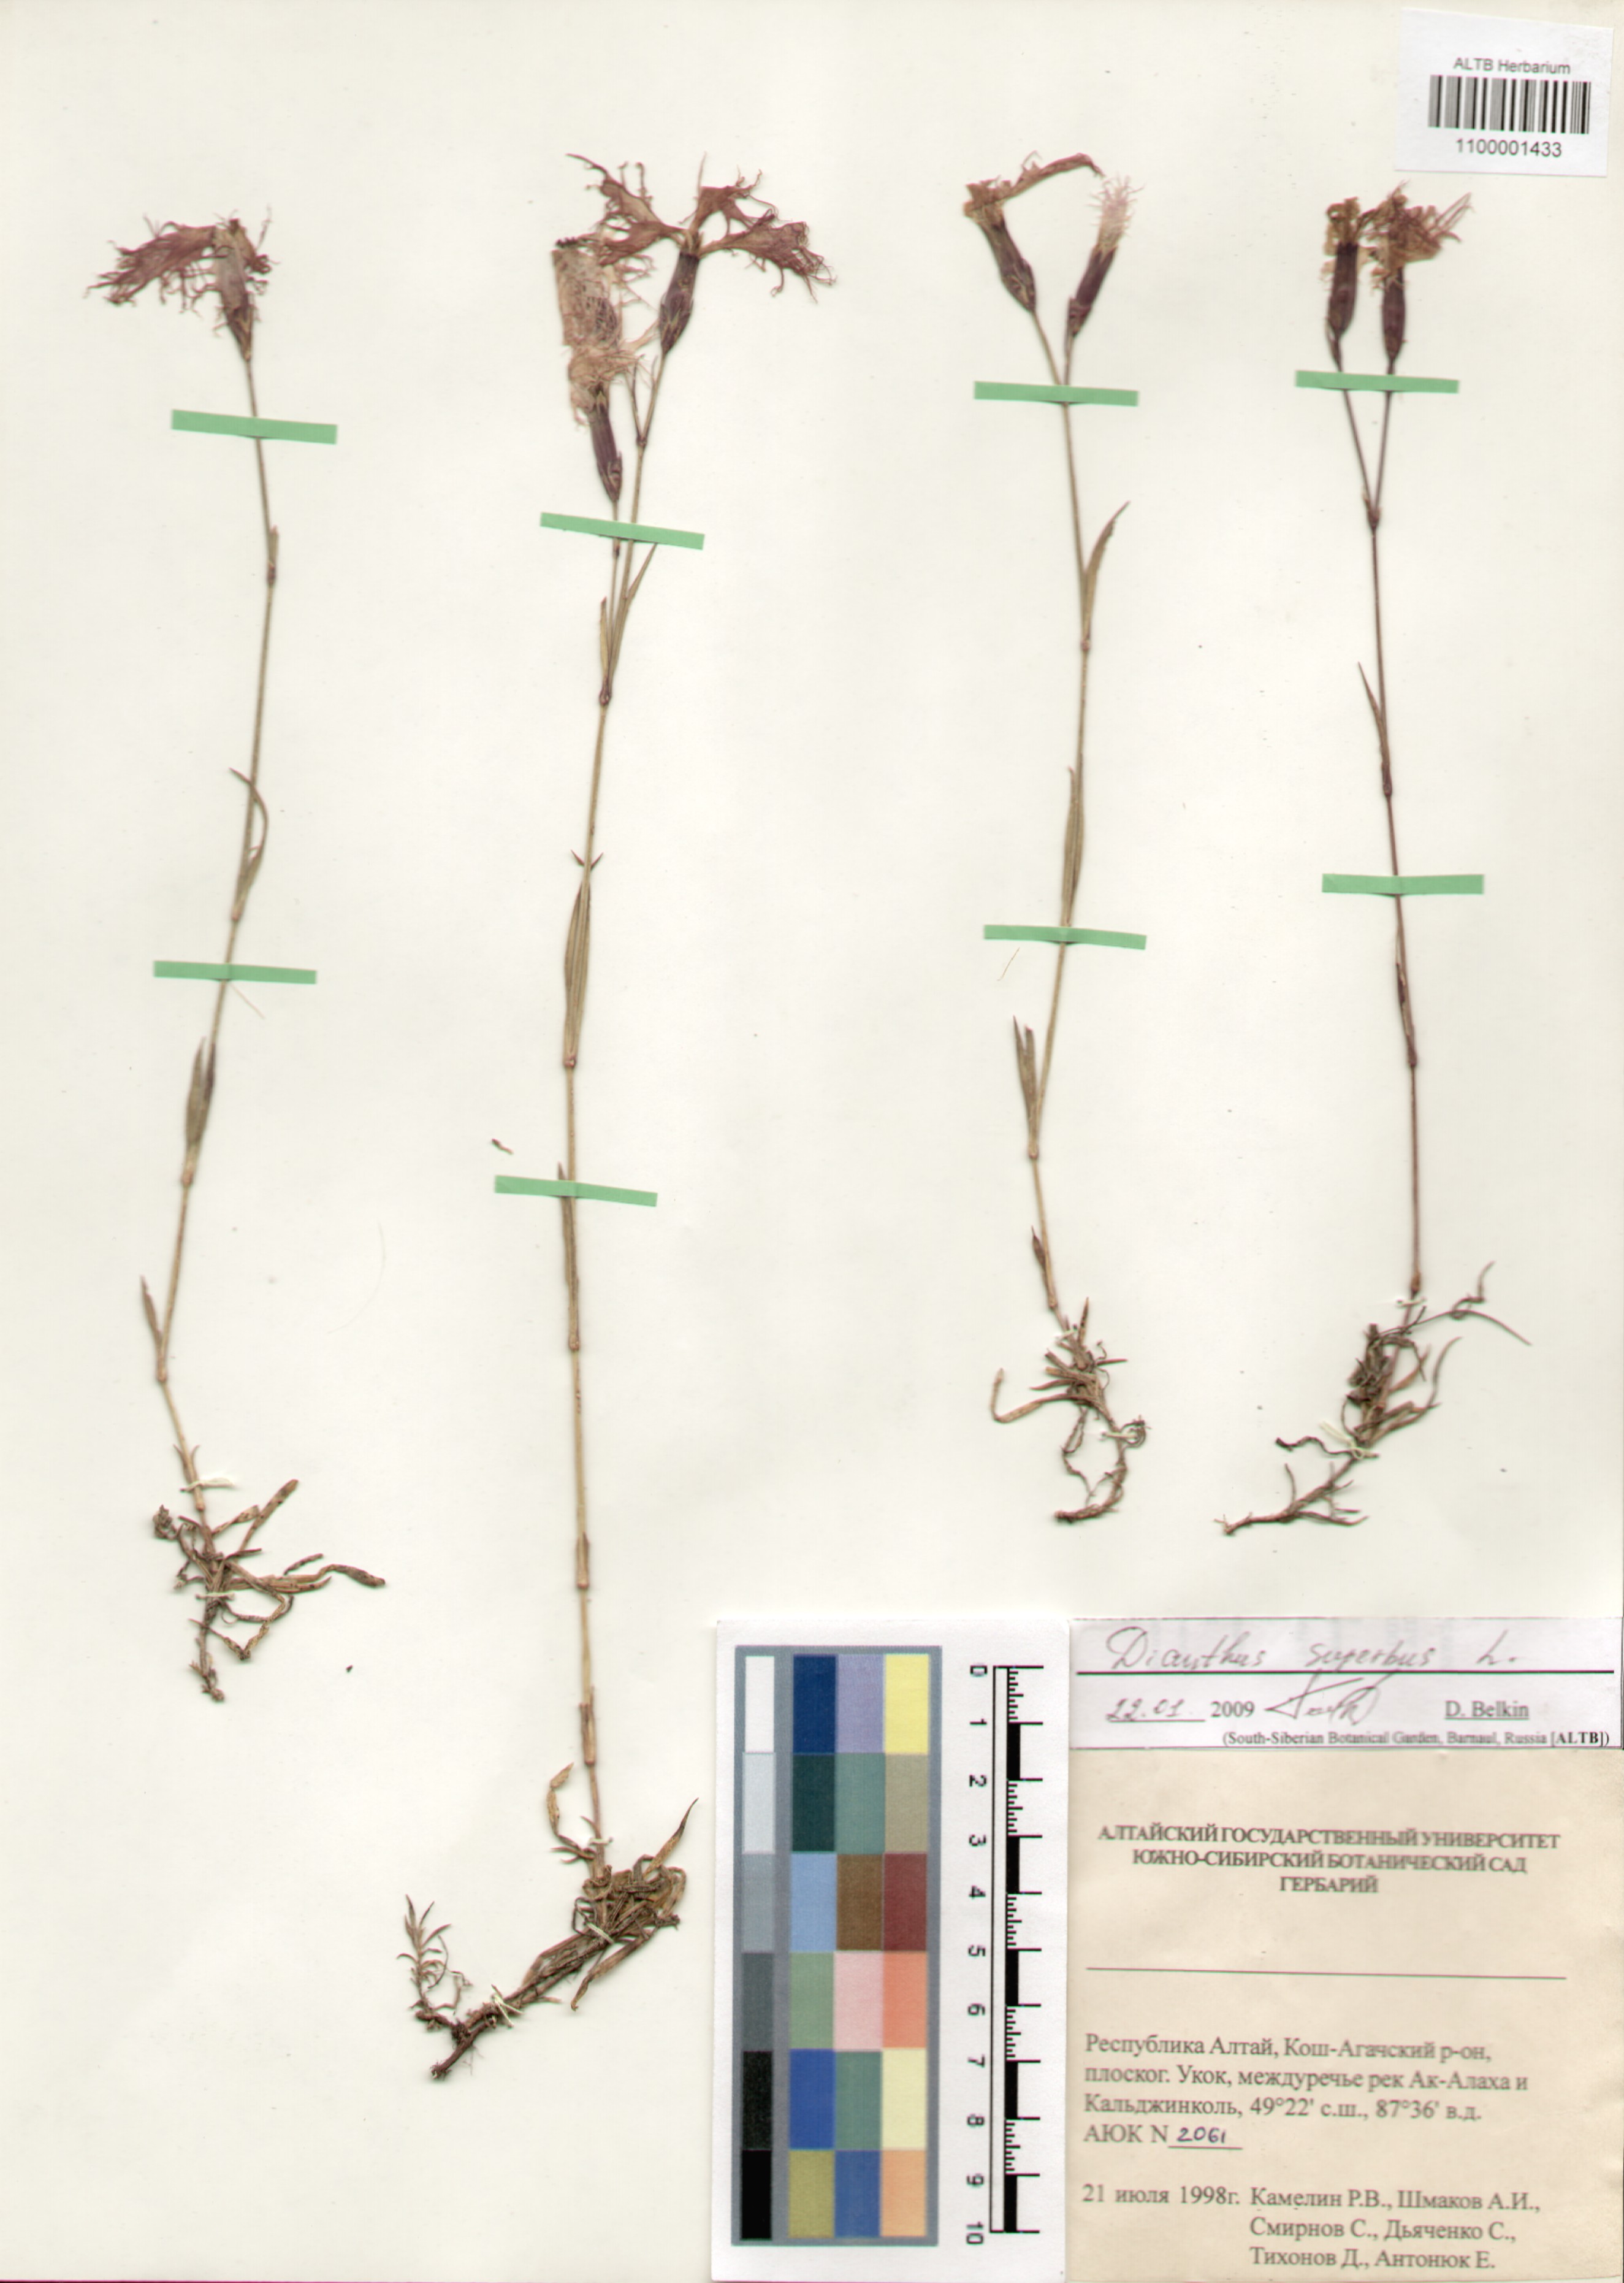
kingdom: Plantae
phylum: Tracheophyta
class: Magnoliopsida
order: Caryophyllales
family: Caryophyllaceae
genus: Dianthus
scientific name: Dianthus superbus
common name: Fringed pink
